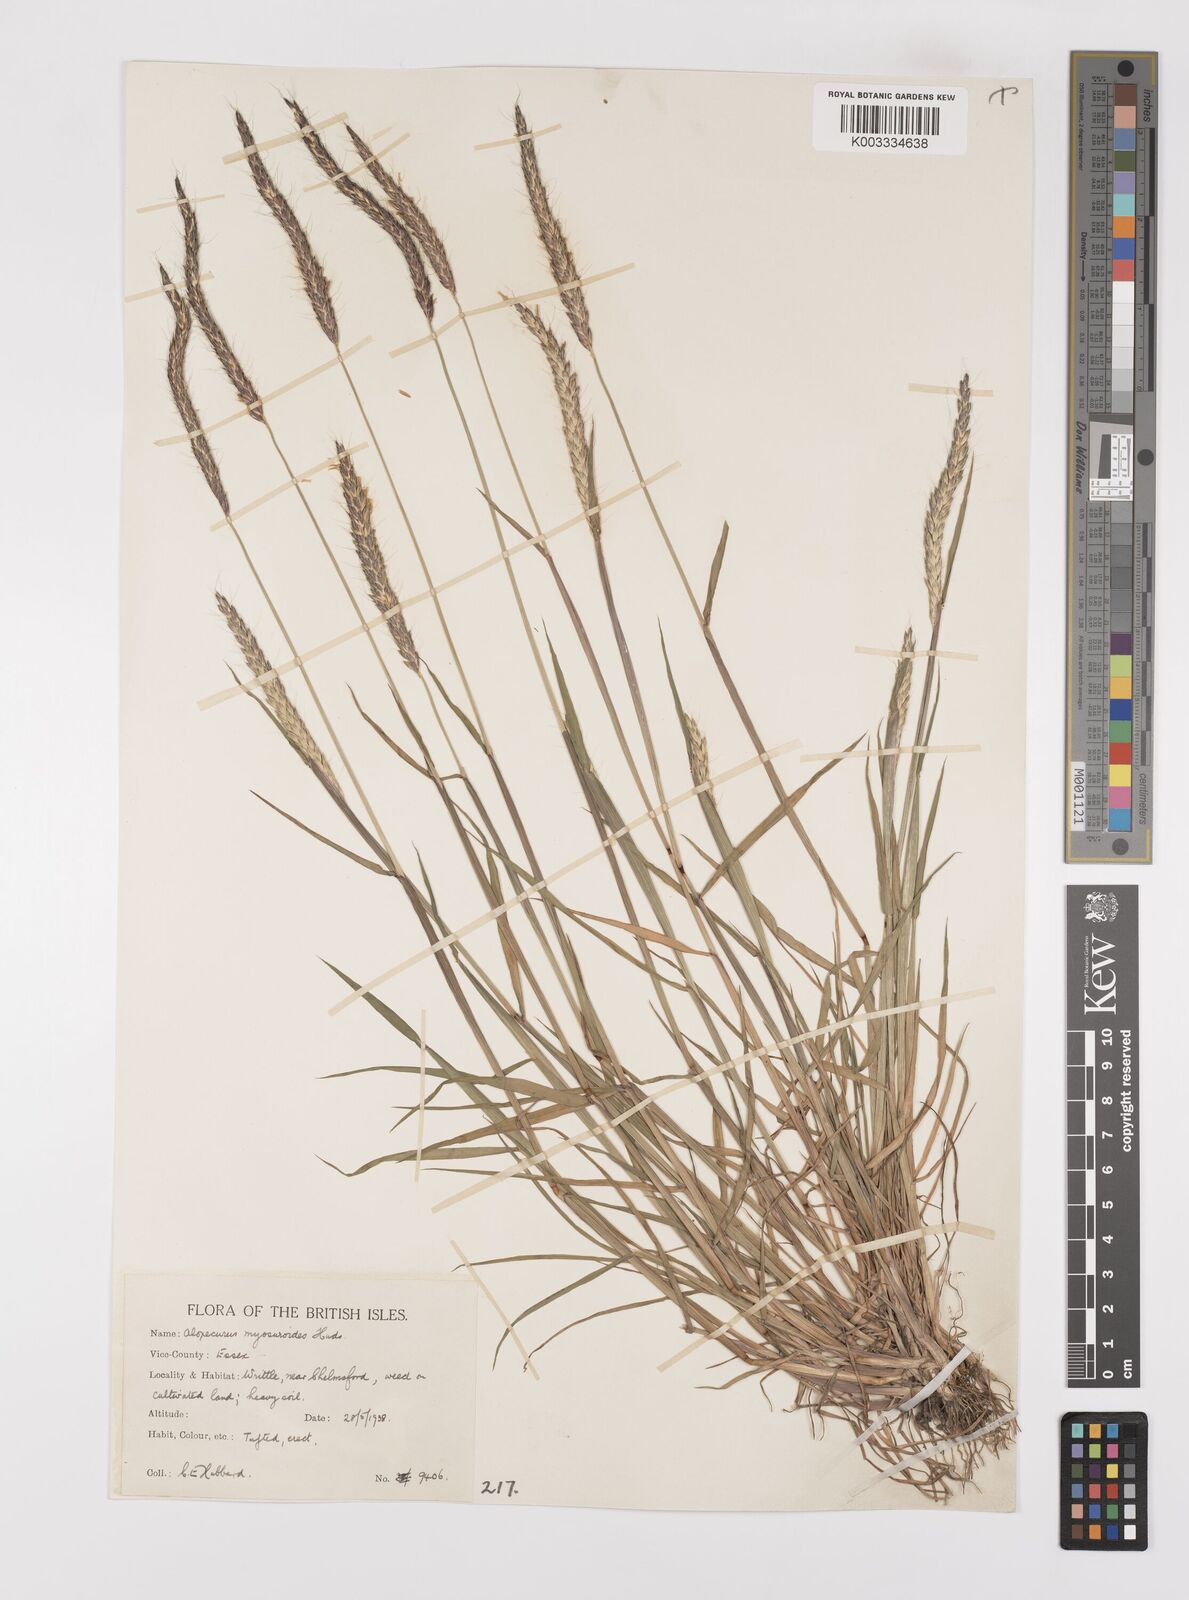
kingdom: Plantae
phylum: Tracheophyta
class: Liliopsida
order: Poales
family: Poaceae
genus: Alopecurus
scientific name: Alopecurus myosuroides
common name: Black-grass
